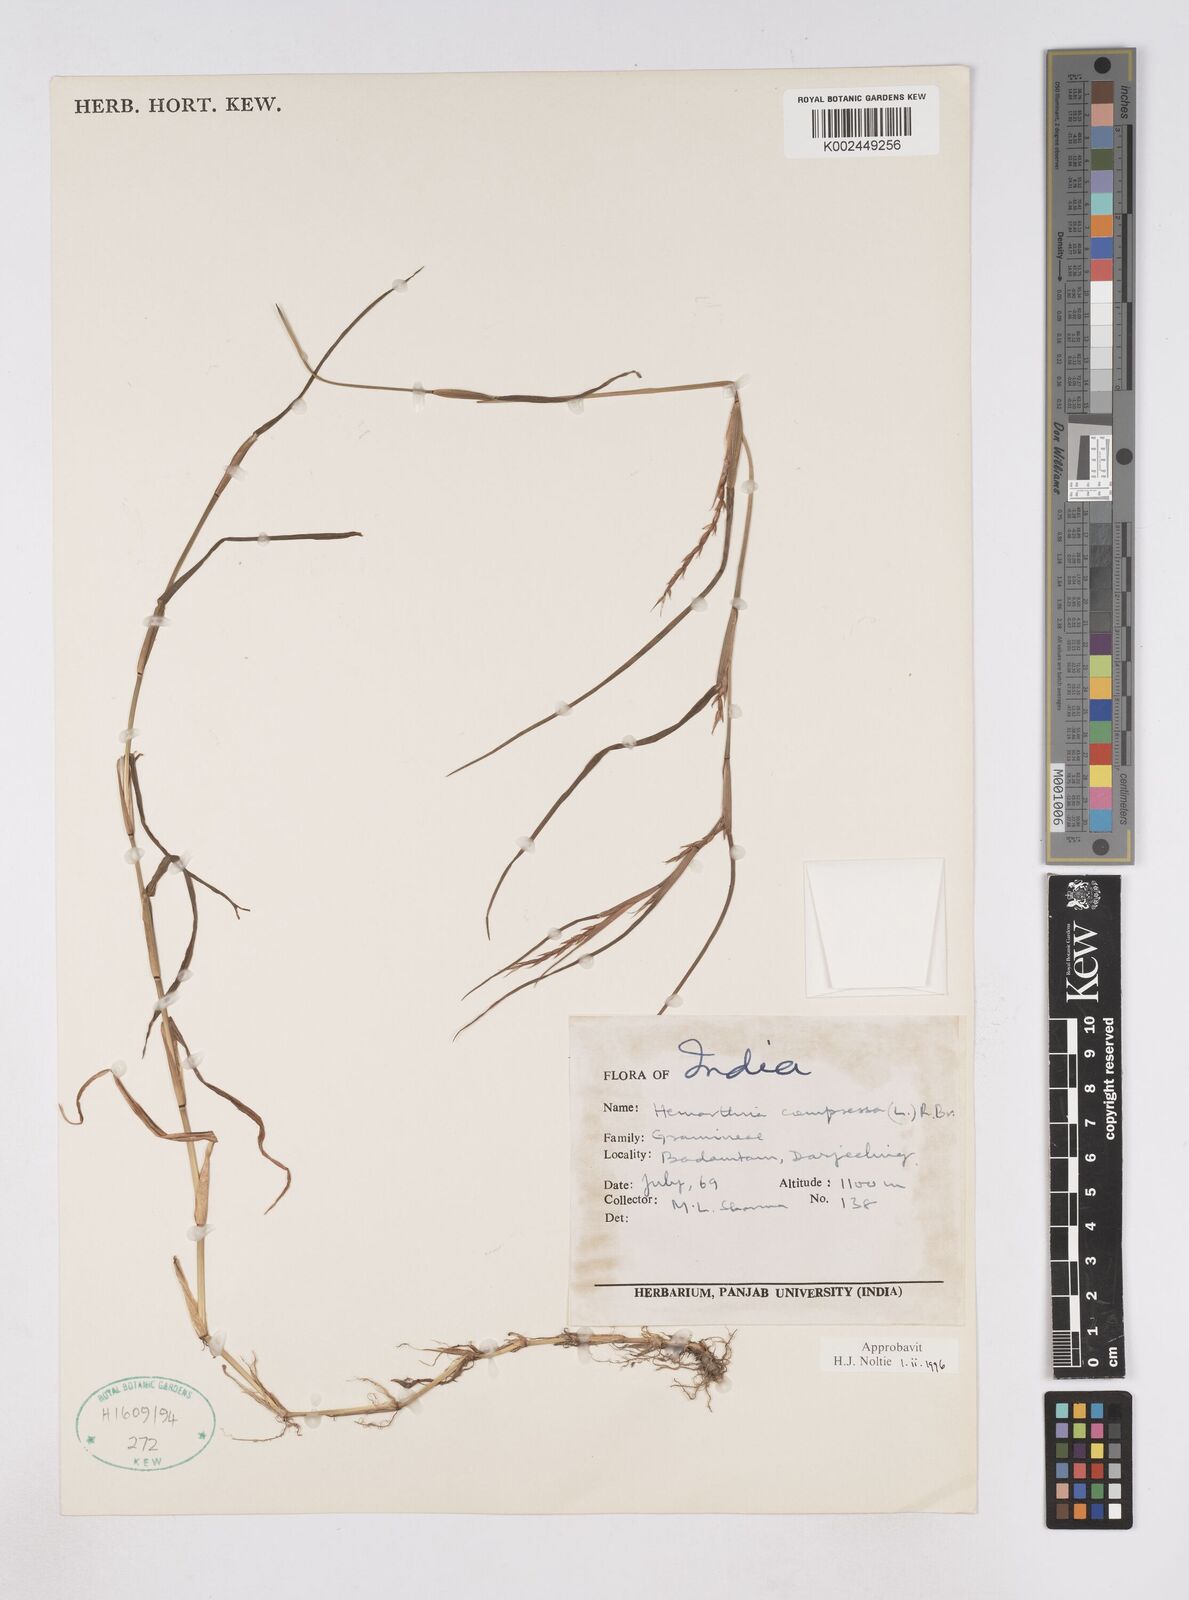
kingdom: Plantae
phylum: Tracheophyta
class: Liliopsida
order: Poales
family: Poaceae
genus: Hemarthria
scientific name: Hemarthria compressa
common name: Whip grass
